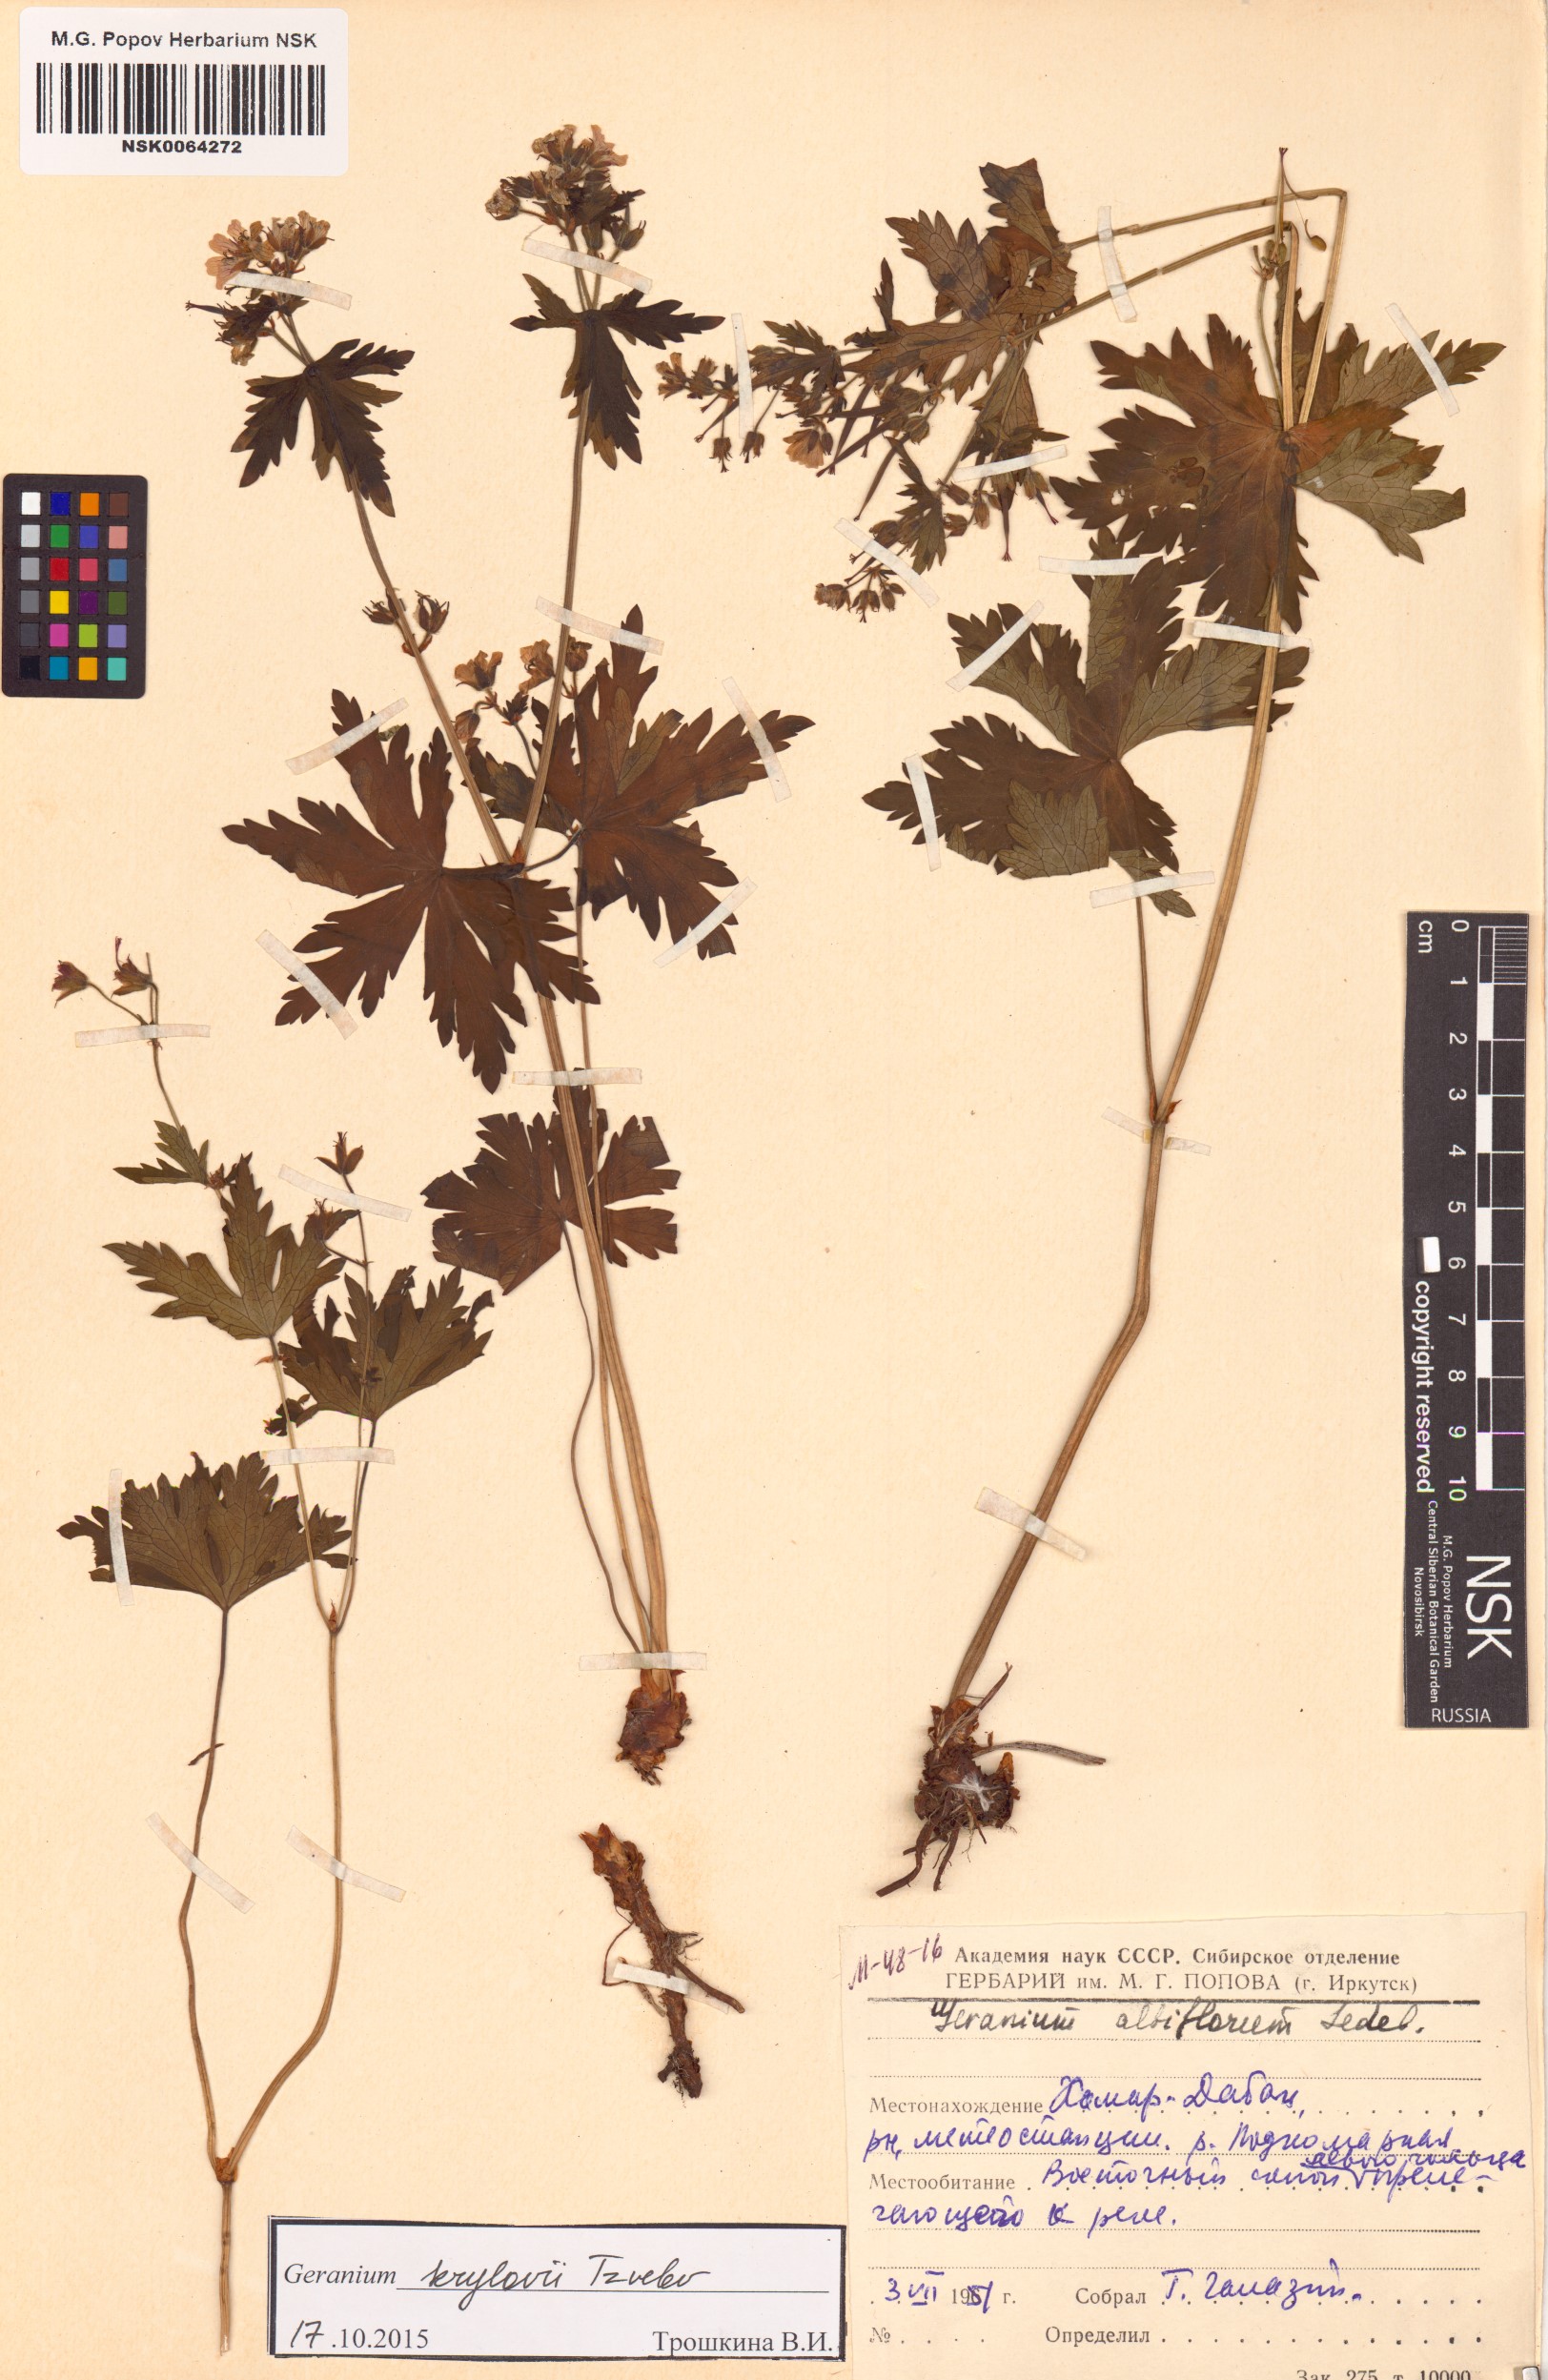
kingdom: Plantae
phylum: Tracheophyta
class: Magnoliopsida
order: Geraniales
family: Geraniaceae
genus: Geranium
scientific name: Geranium sylvaticum
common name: Wood crane's-bill
